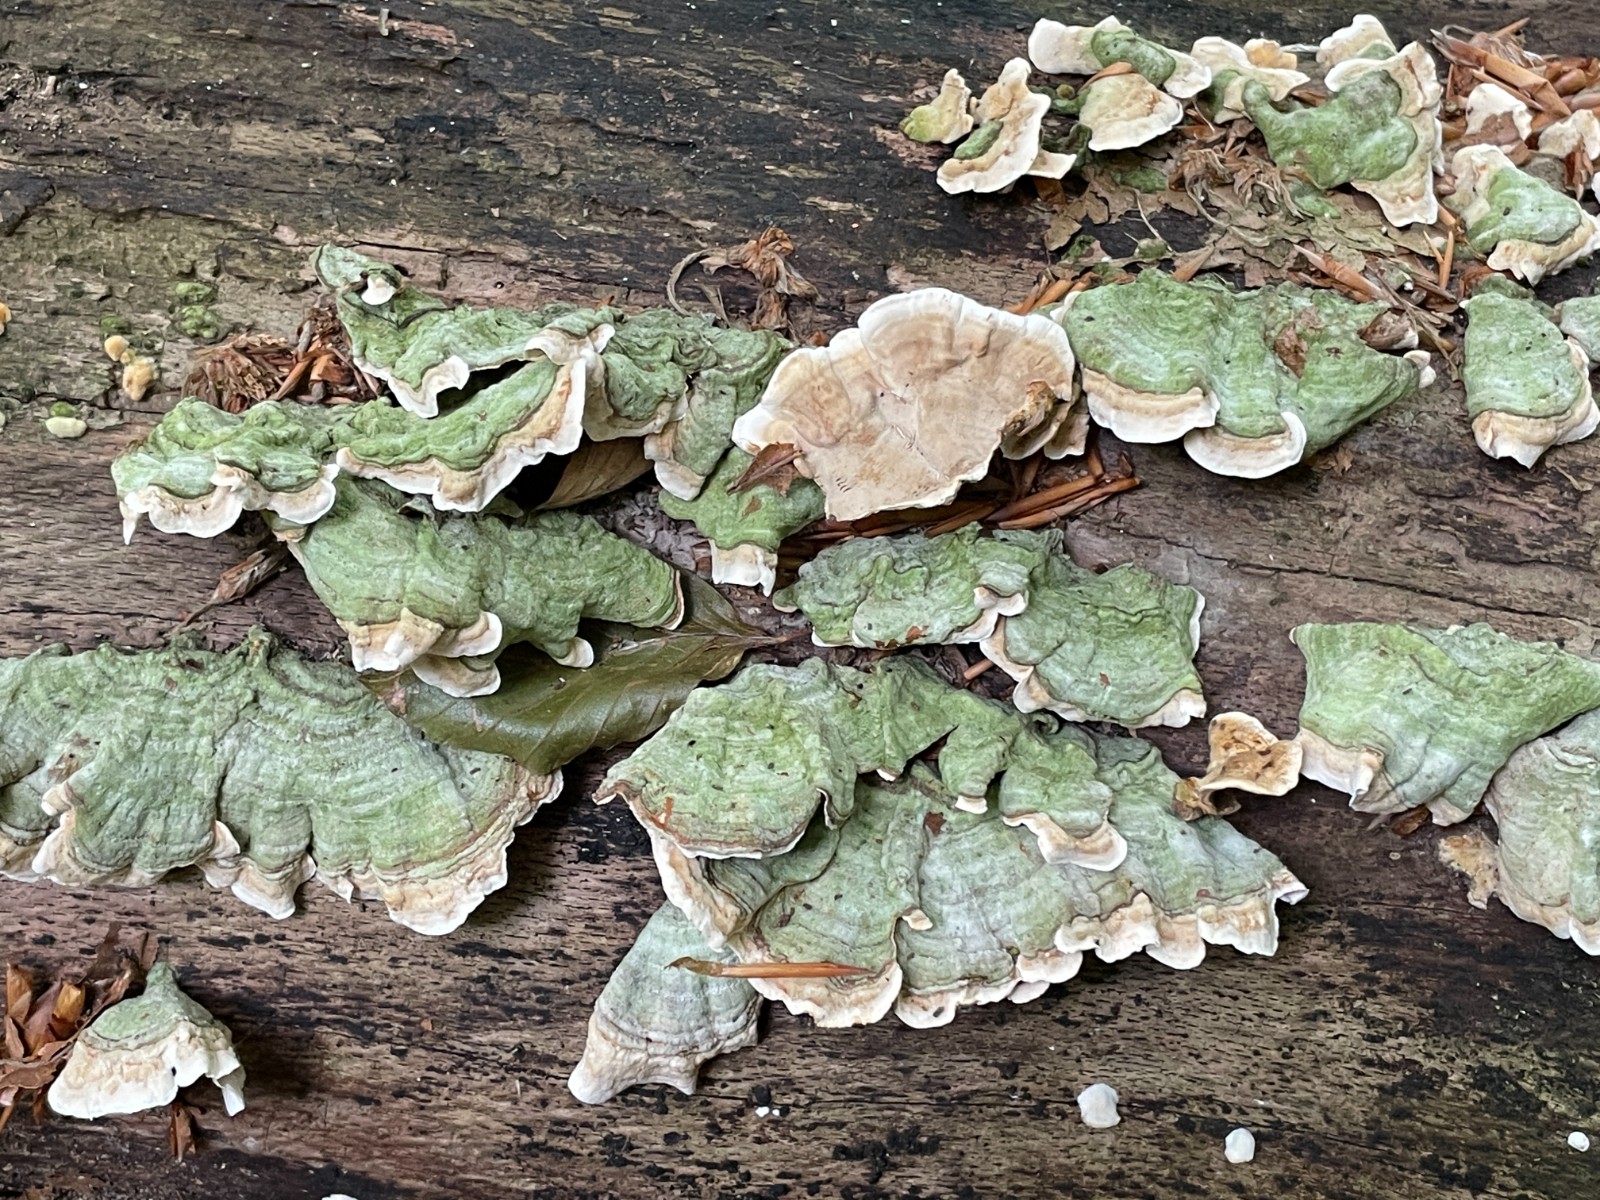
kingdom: Fungi
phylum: Basidiomycota
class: Agaricomycetes
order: Russulales
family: Stereaceae
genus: Stereum
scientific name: Stereum subtomentosum
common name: smuk lædersvamp
